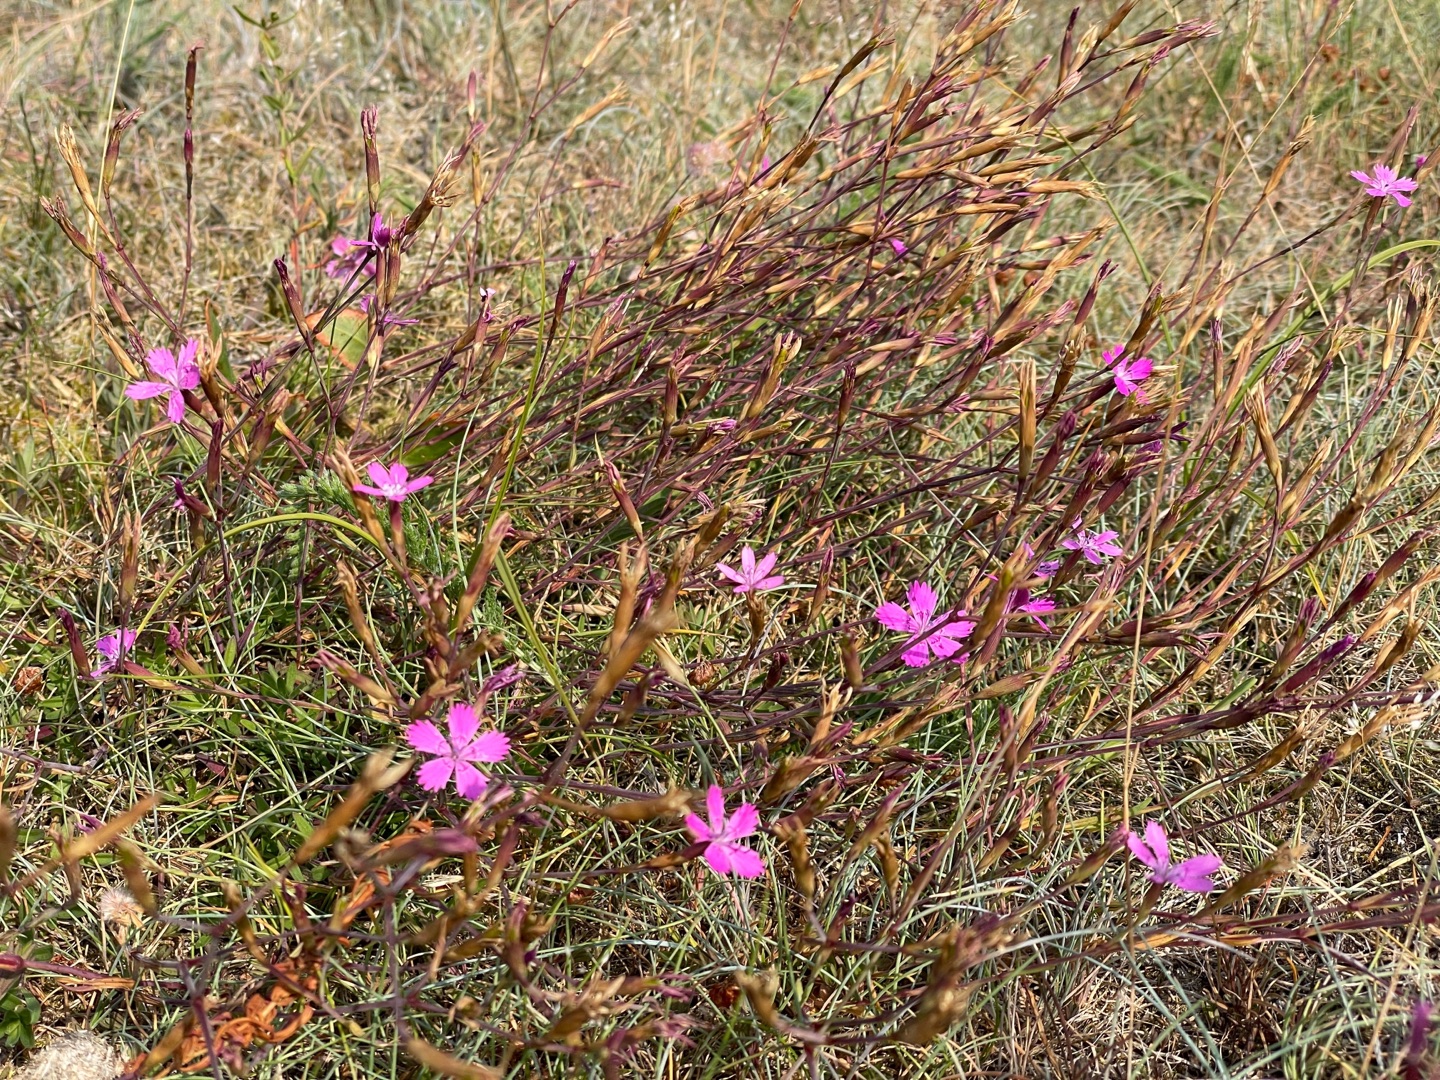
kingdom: Plantae
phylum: Tracheophyta
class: Magnoliopsida
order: Caryophyllales
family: Caryophyllaceae
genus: Dianthus
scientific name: Dianthus deltoides
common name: Bakke-nellike
